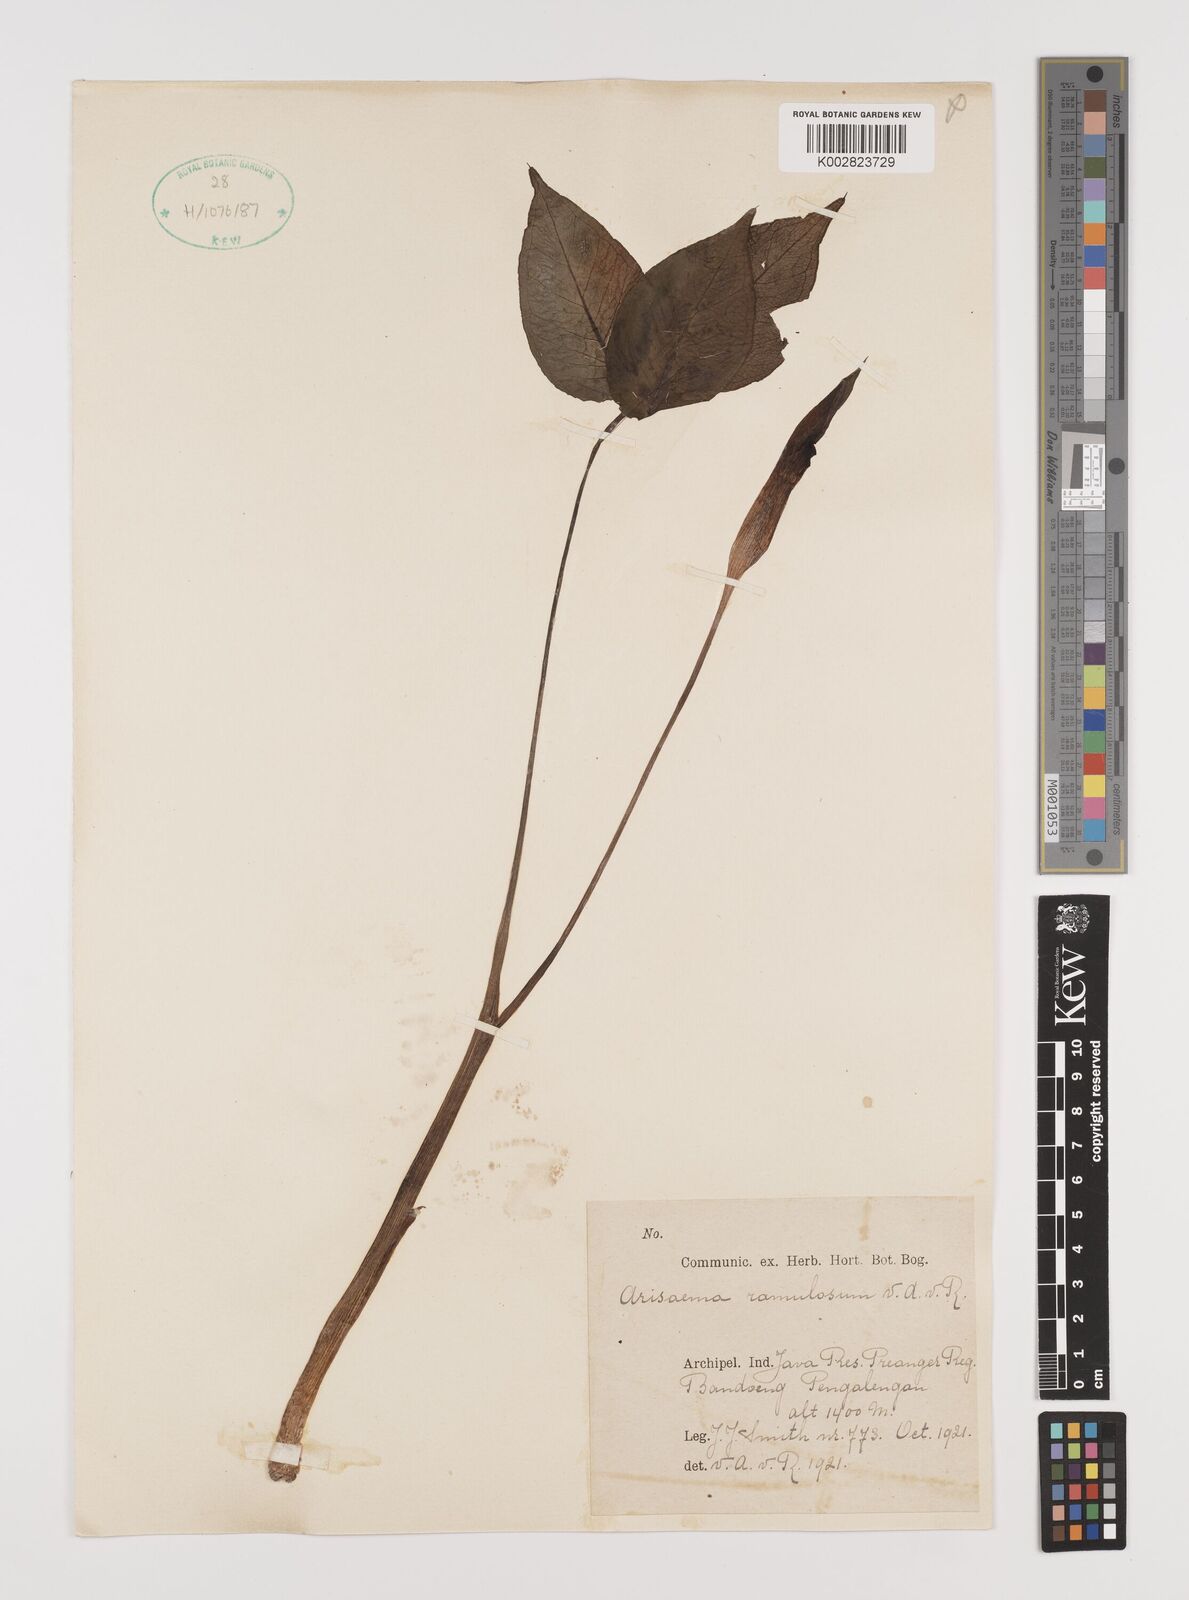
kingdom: Plantae
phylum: Tracheophyta
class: Liliopsida
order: Alismatales
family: Araceae
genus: Arisaema
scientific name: Arisaema ramulosum
